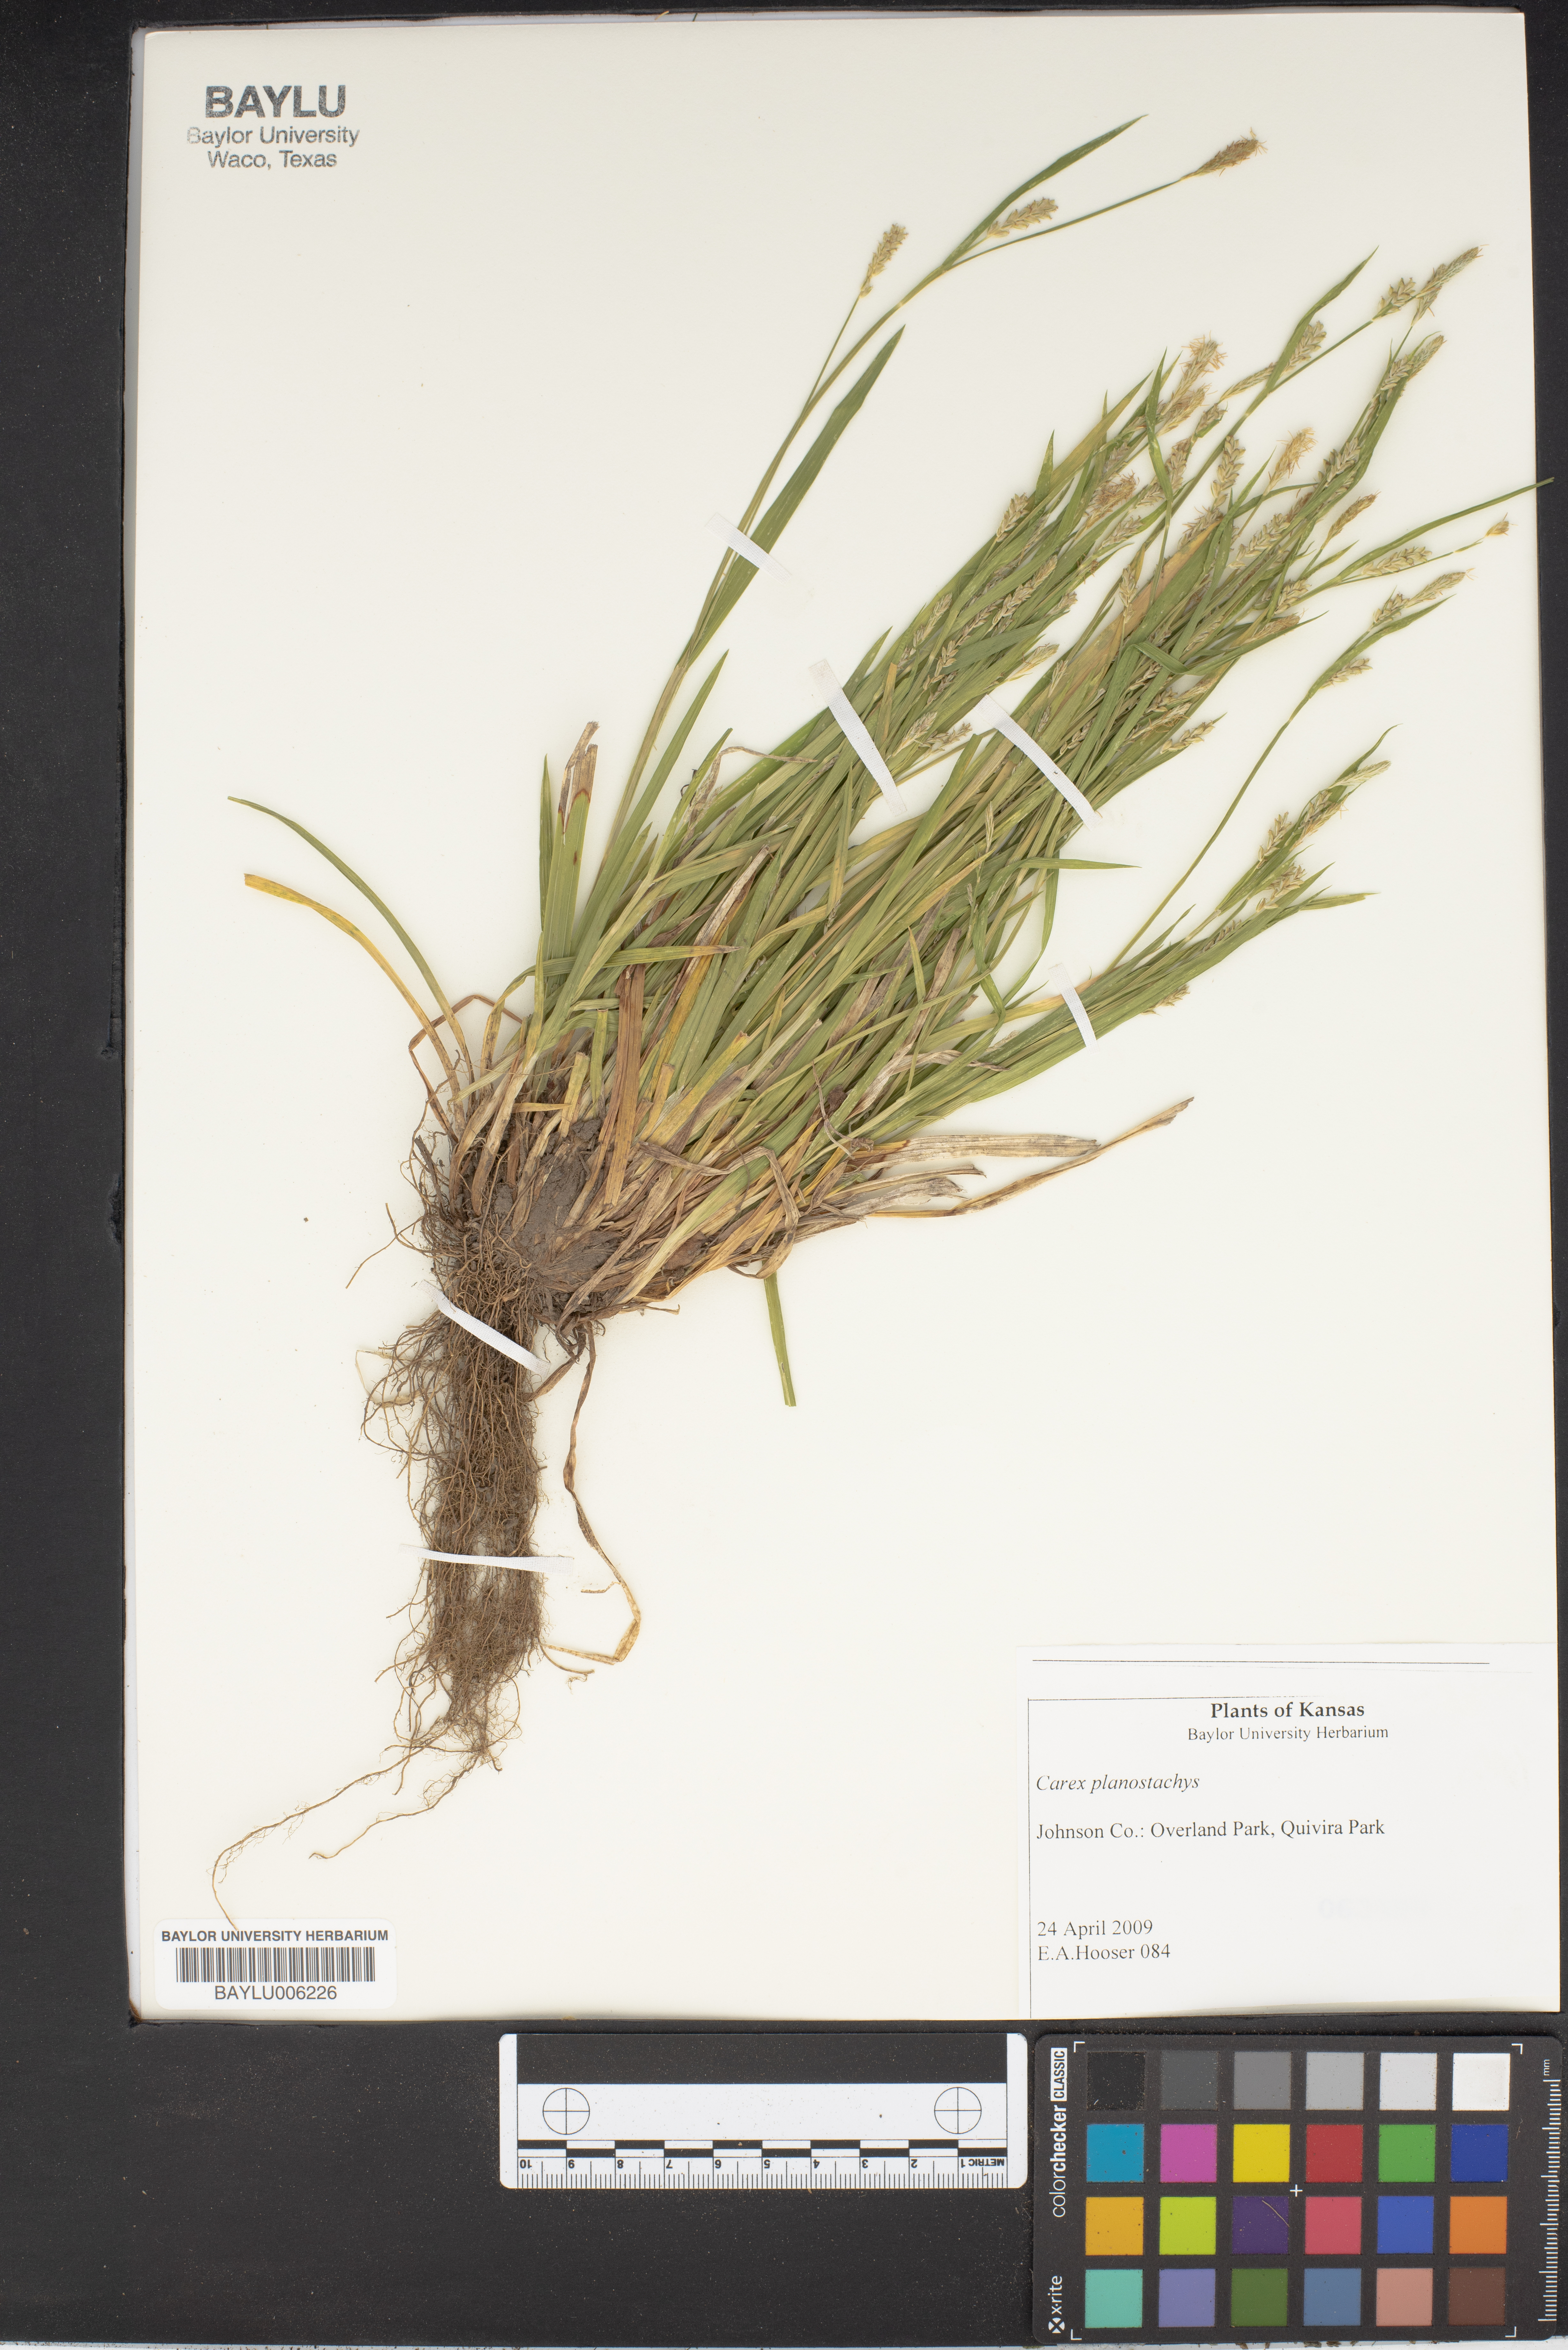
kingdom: Plantae
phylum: Tracheophyta
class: Liliopsida
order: Poales
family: Cyperaceae
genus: Carex
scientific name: Carex planostachys
